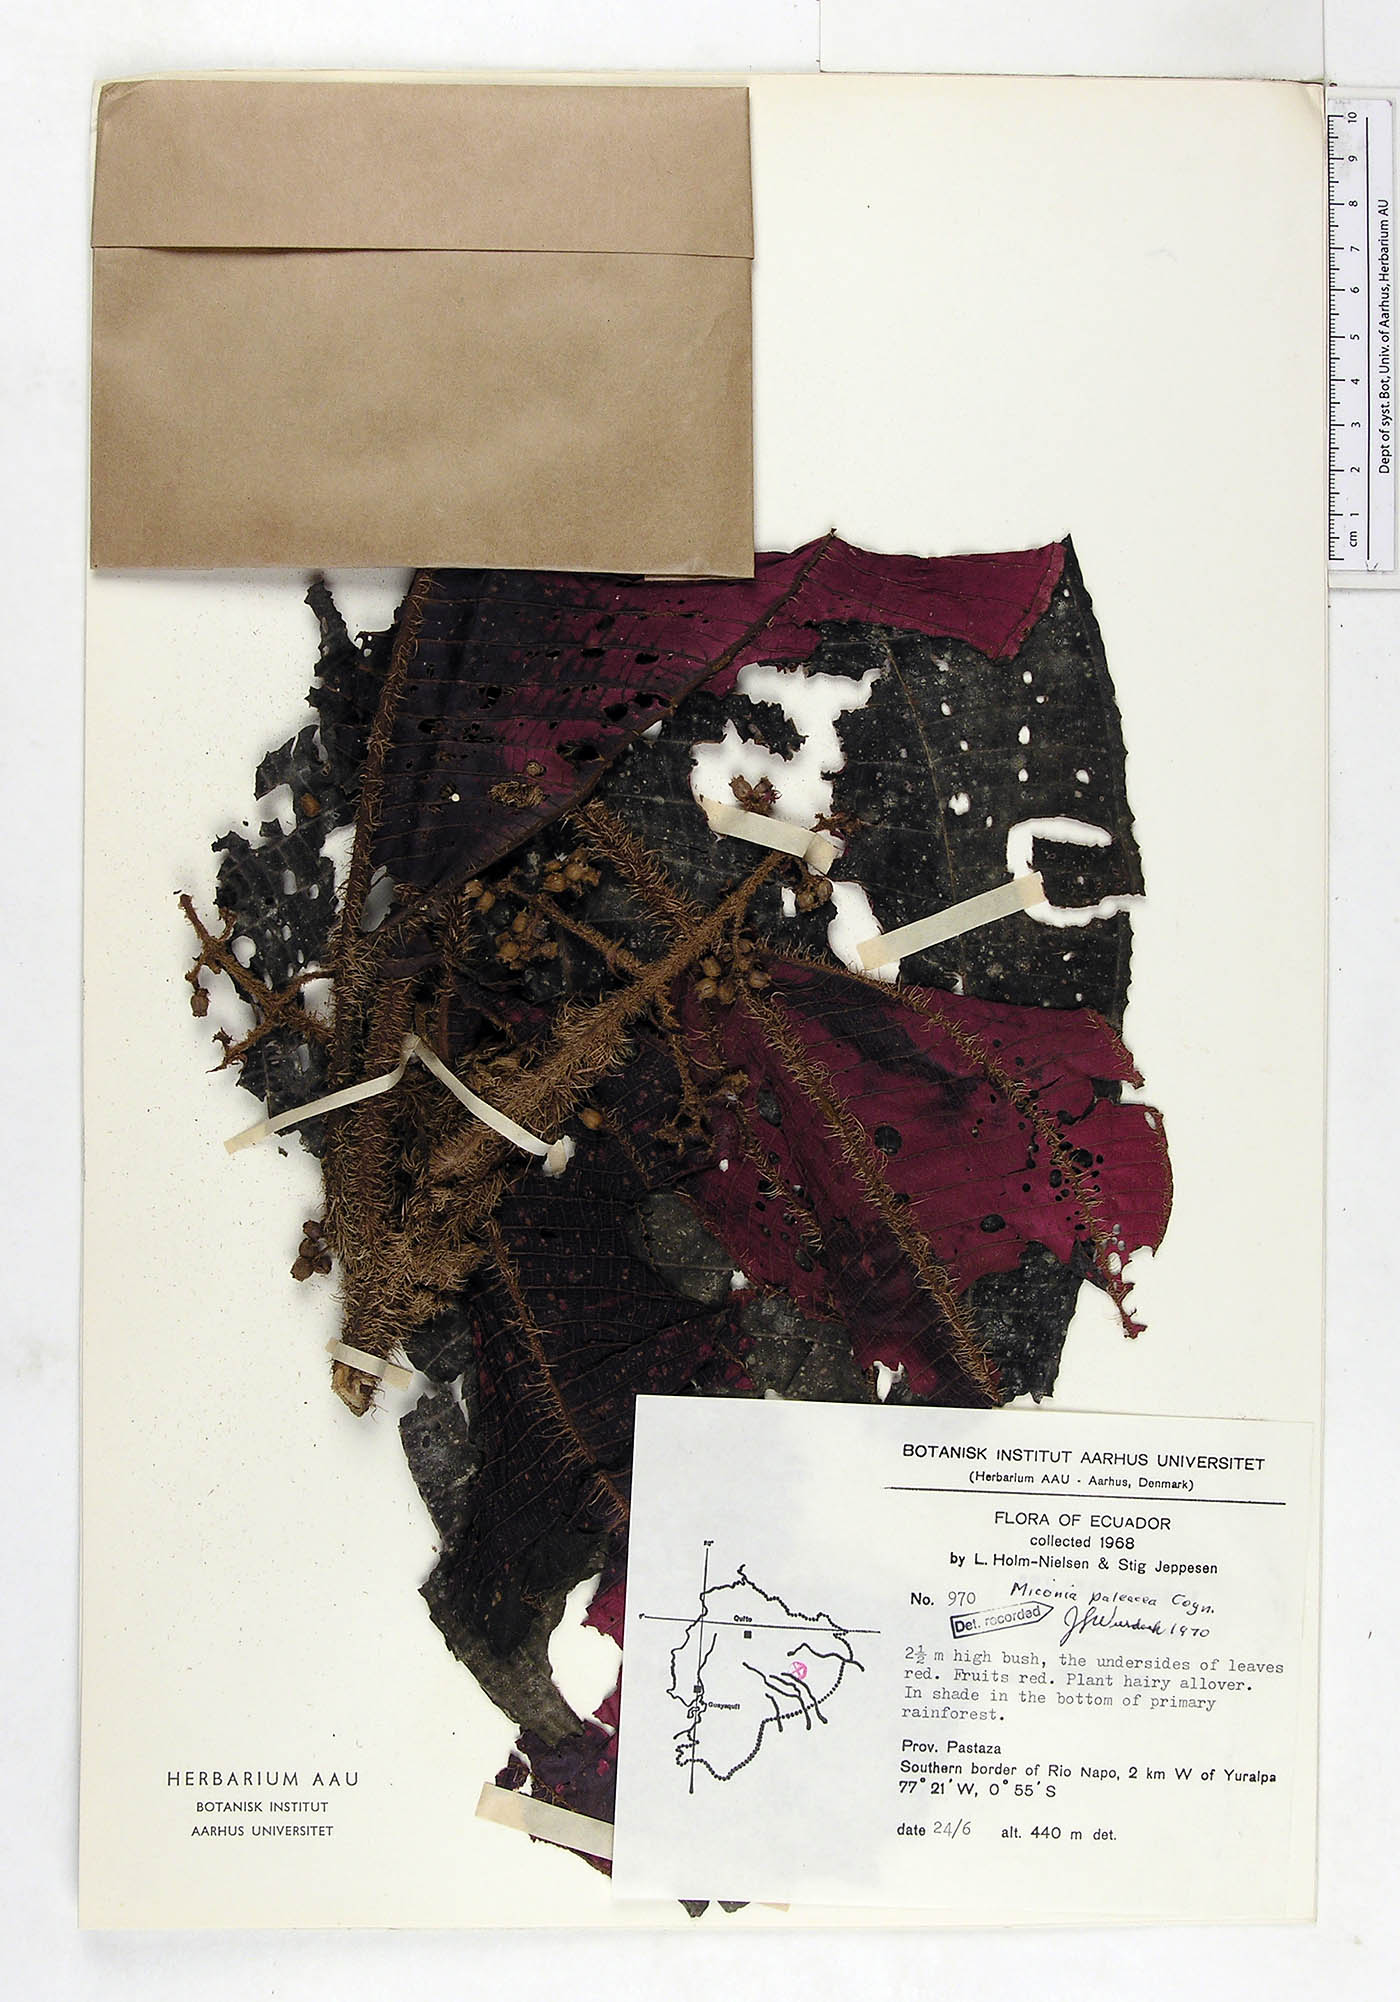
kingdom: Plantae
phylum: Tracheophyta
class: Magnoliopsida
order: Myrtales
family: Melastomataceae
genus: Miconia
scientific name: Miconia paleacea
